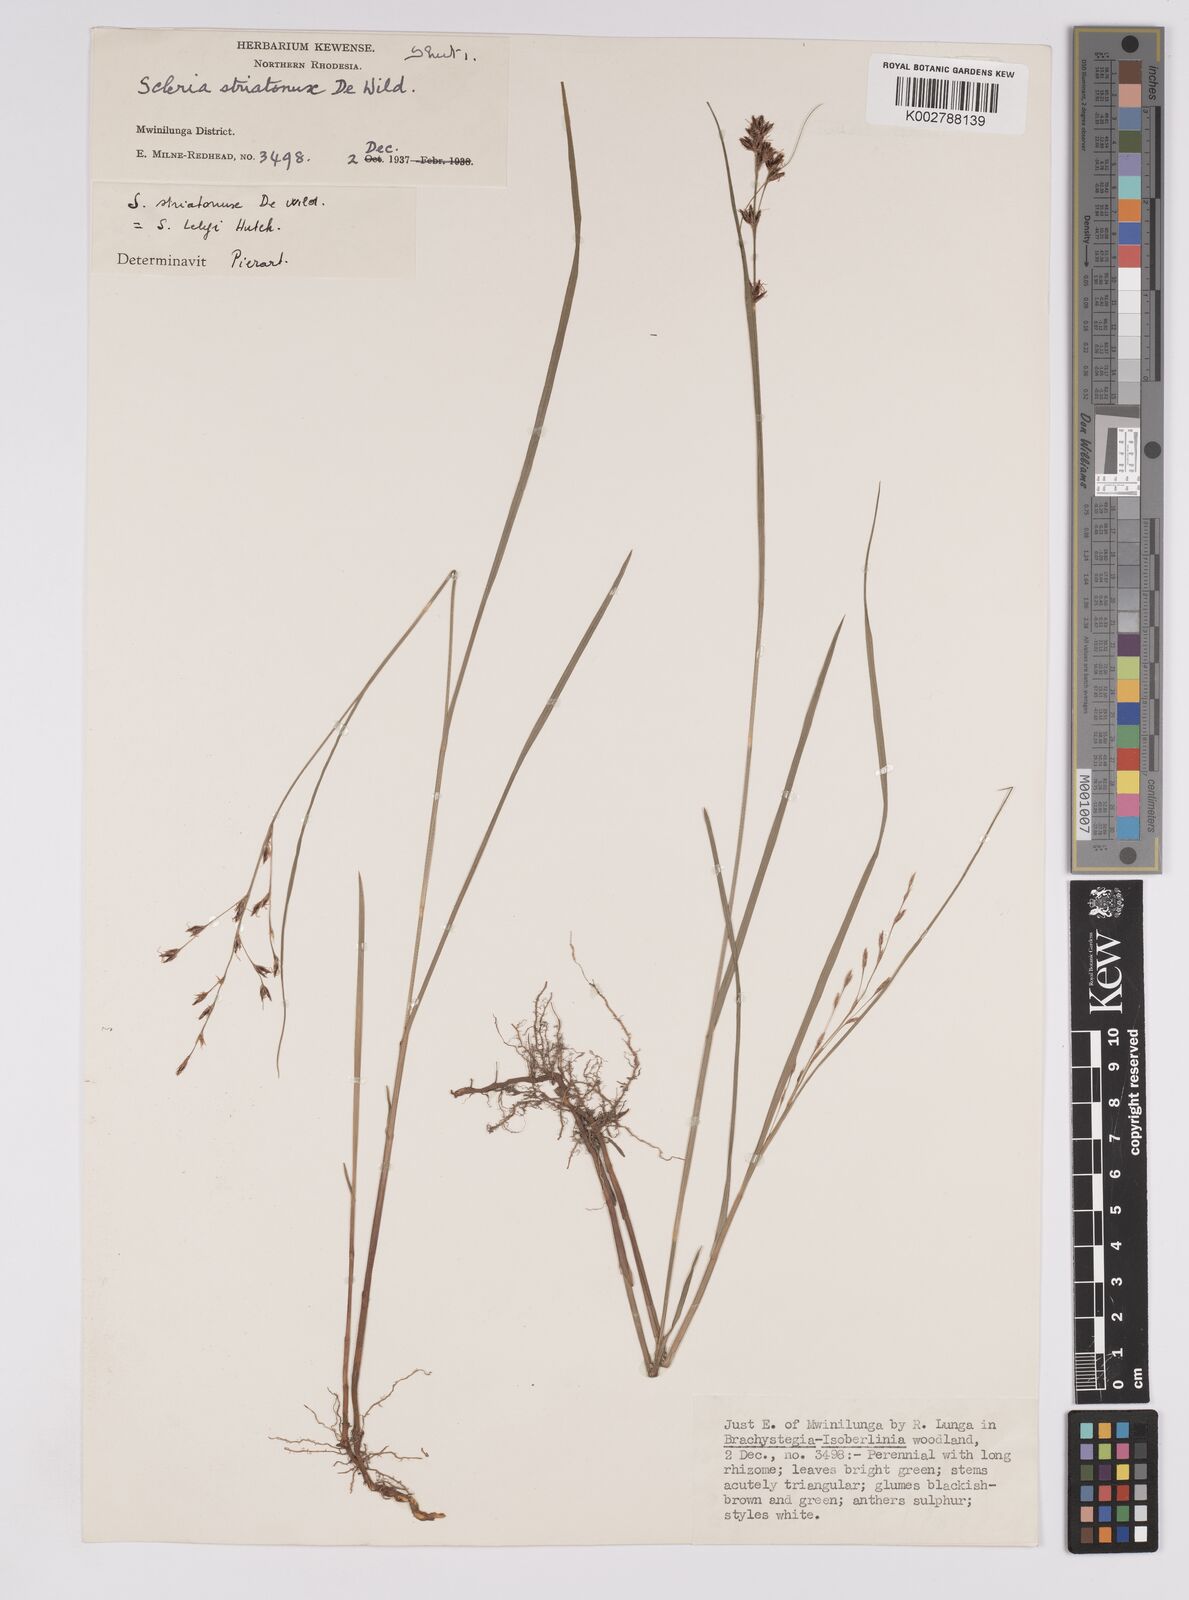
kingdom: Plantae
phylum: Tracheophyta
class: Liliopsida
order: Poales
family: Cyperaceae
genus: Scleria
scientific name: Scleria woodii
